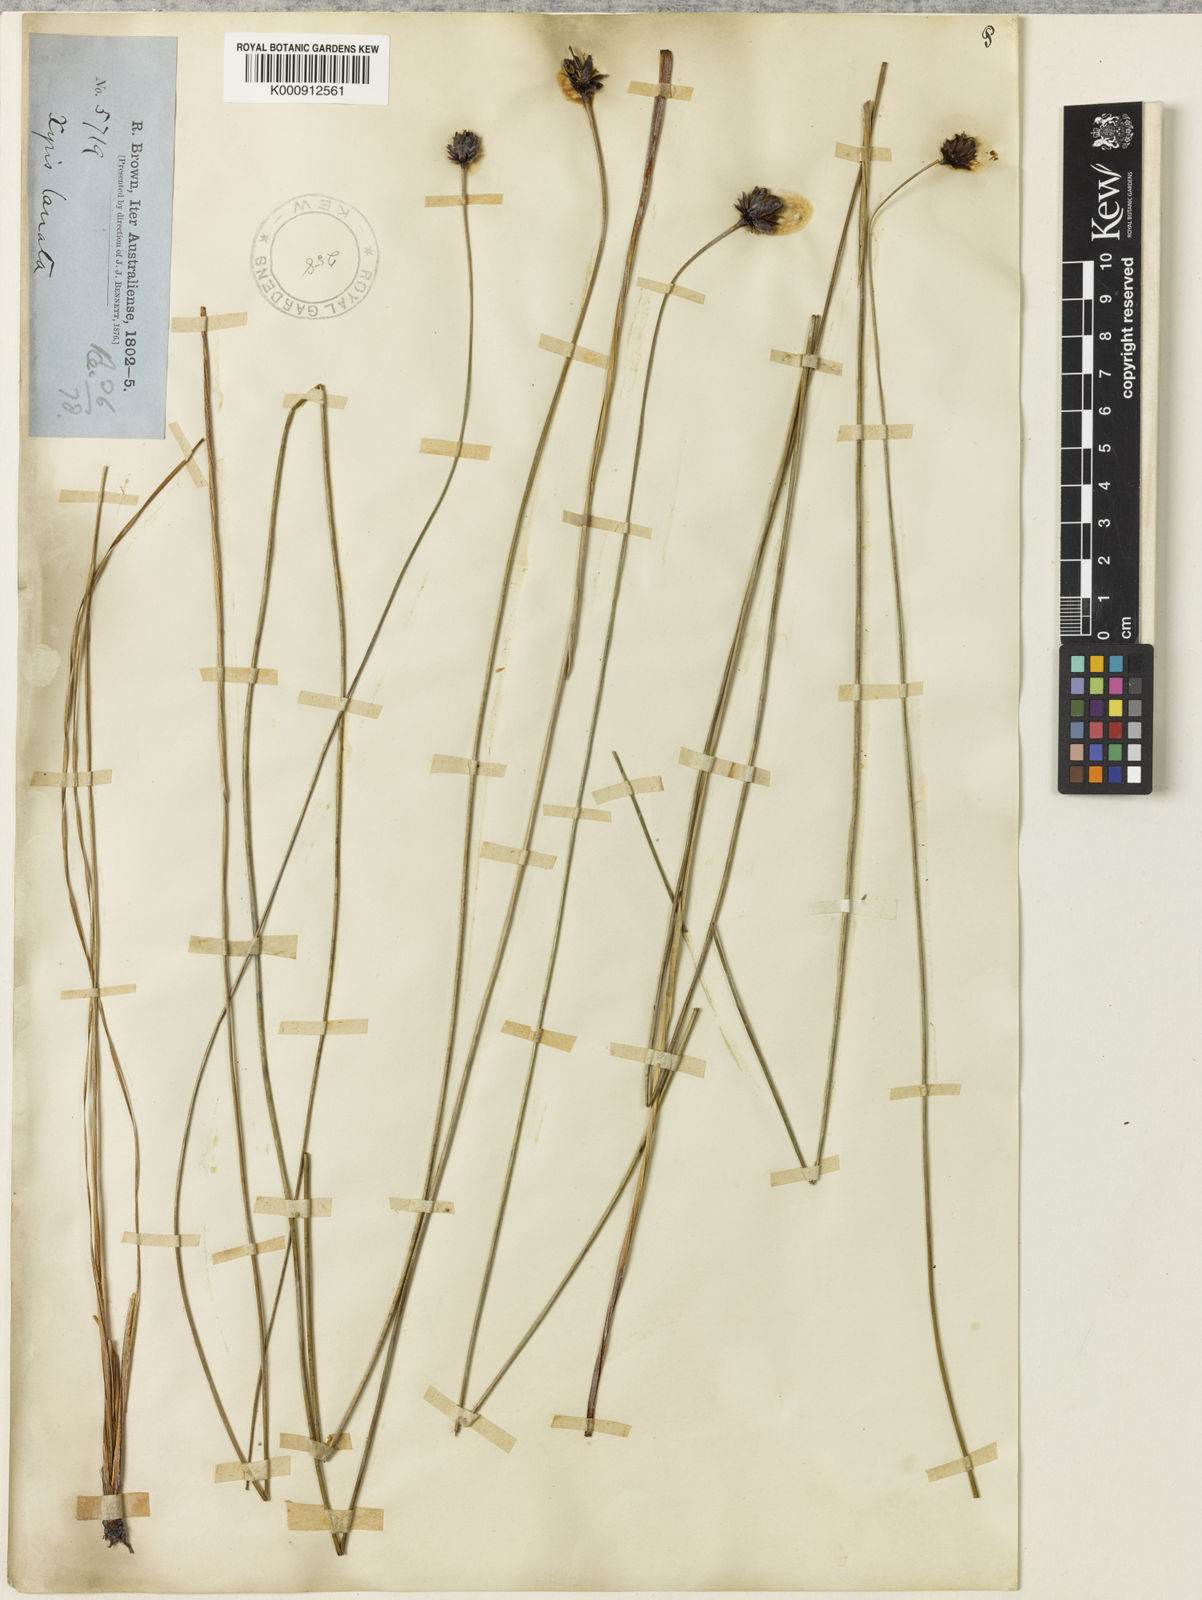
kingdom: Plantae
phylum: Tracheophyta
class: Liliopsida
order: Poales
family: Xyridaceae
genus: Xyris
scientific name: Xyris lanata
